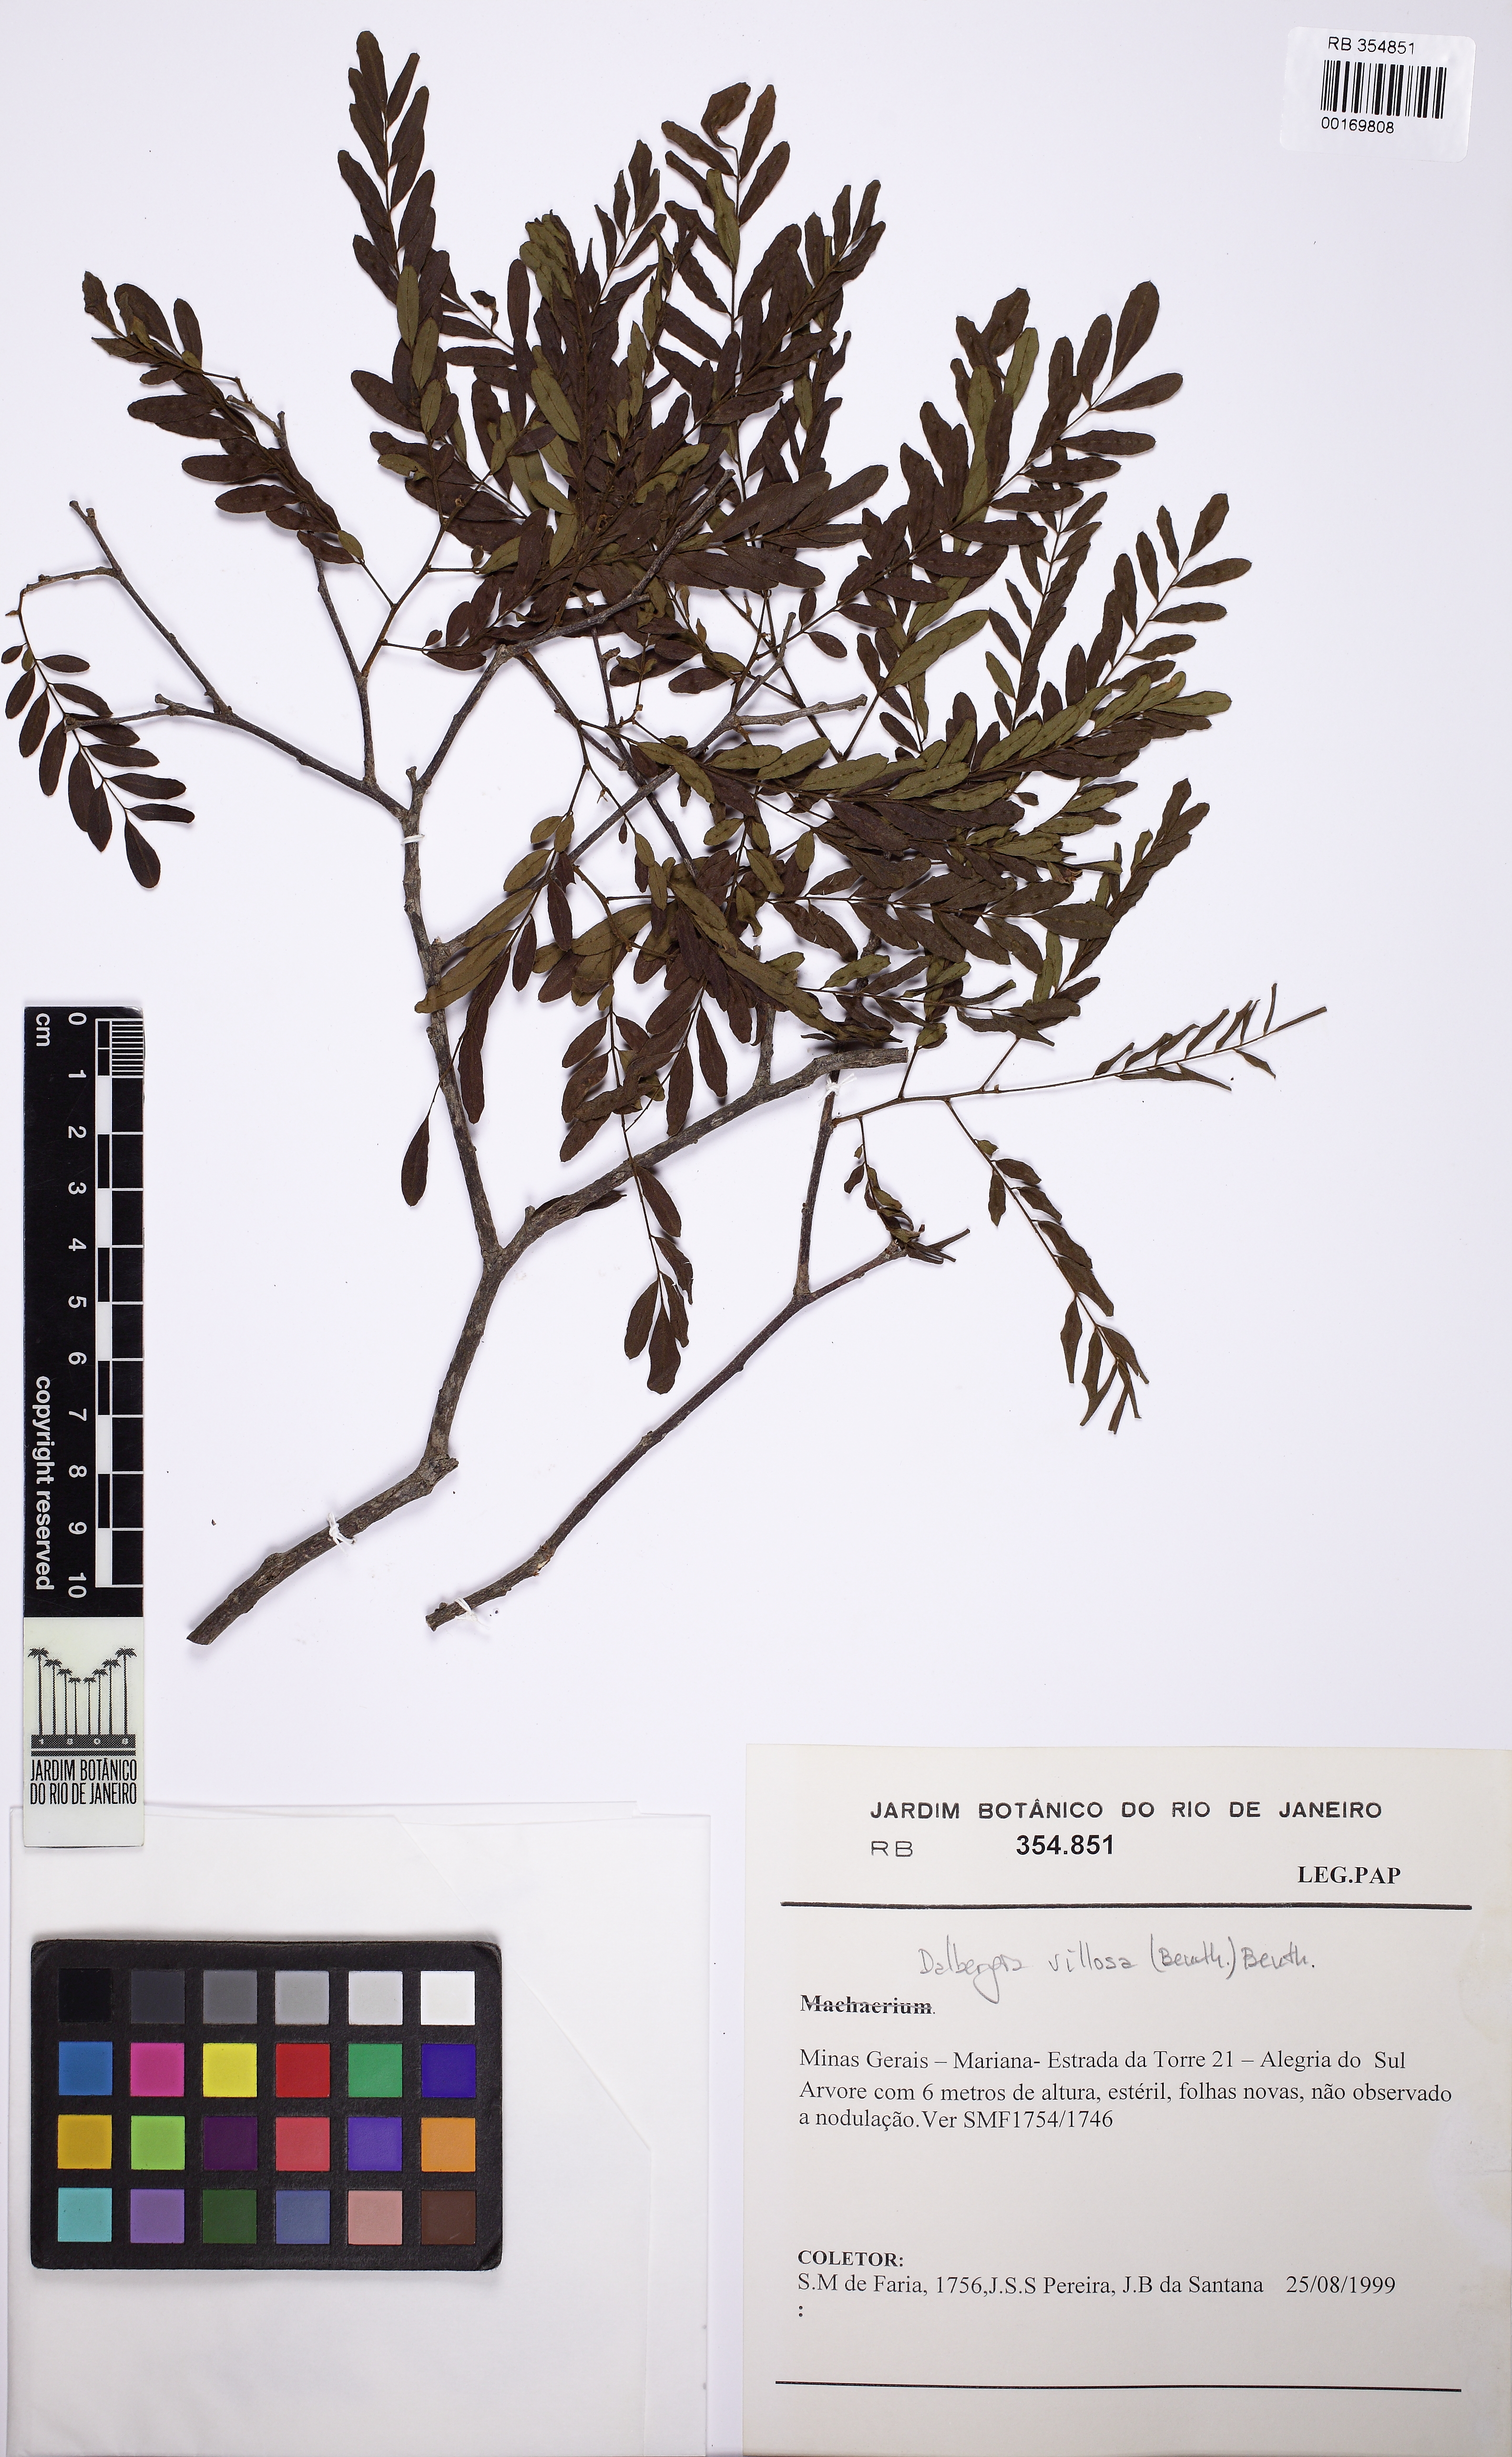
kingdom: Plantae
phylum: Tracheophyta
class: Magnoliopsida
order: Fabales
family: Fabaceae
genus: Dalbergia
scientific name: Dalbergia villosa
